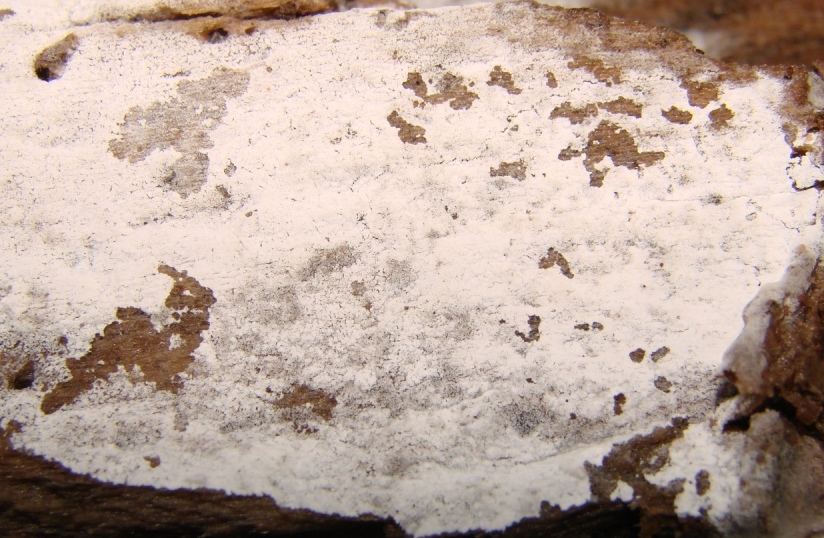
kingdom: Fungi
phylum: Basidiomycota
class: Agaricomycetes
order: Cantharellales
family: Hydnaceae
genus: Sistotrema
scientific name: Sistotrema sernanderi
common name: sur kroneskorpe
